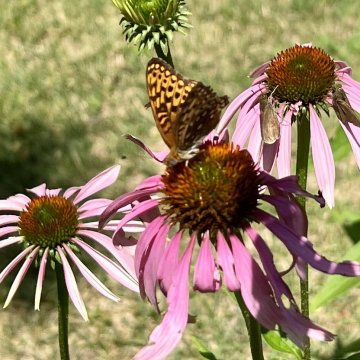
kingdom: Animalia
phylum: Arthropoda
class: Insecta
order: Lepidoptera
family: Nymphalidae
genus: Speyeria
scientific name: Speyeria atlantis
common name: Atlantis Fritillary
